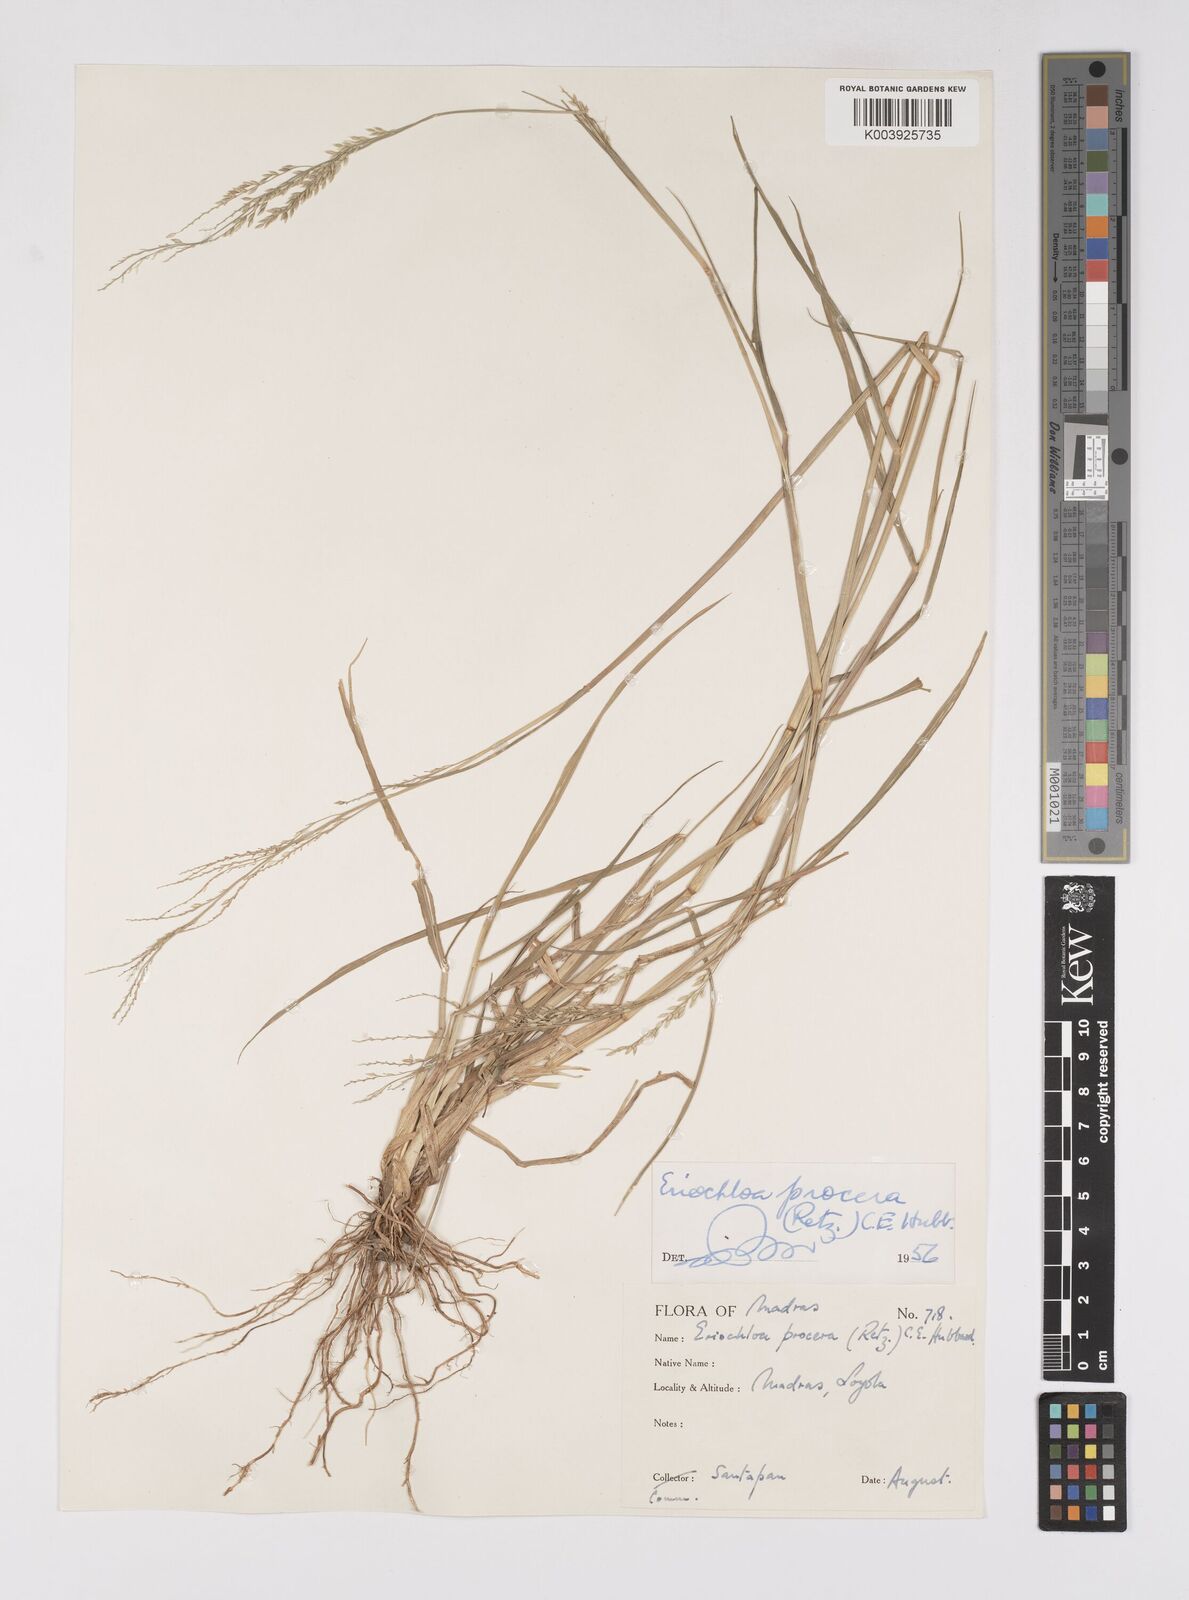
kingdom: Plantae
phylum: Tracheophyta
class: Liliopsida
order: Poales
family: Poaceae
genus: Eriochloa
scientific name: Eriochloa procera
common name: Spring grass
